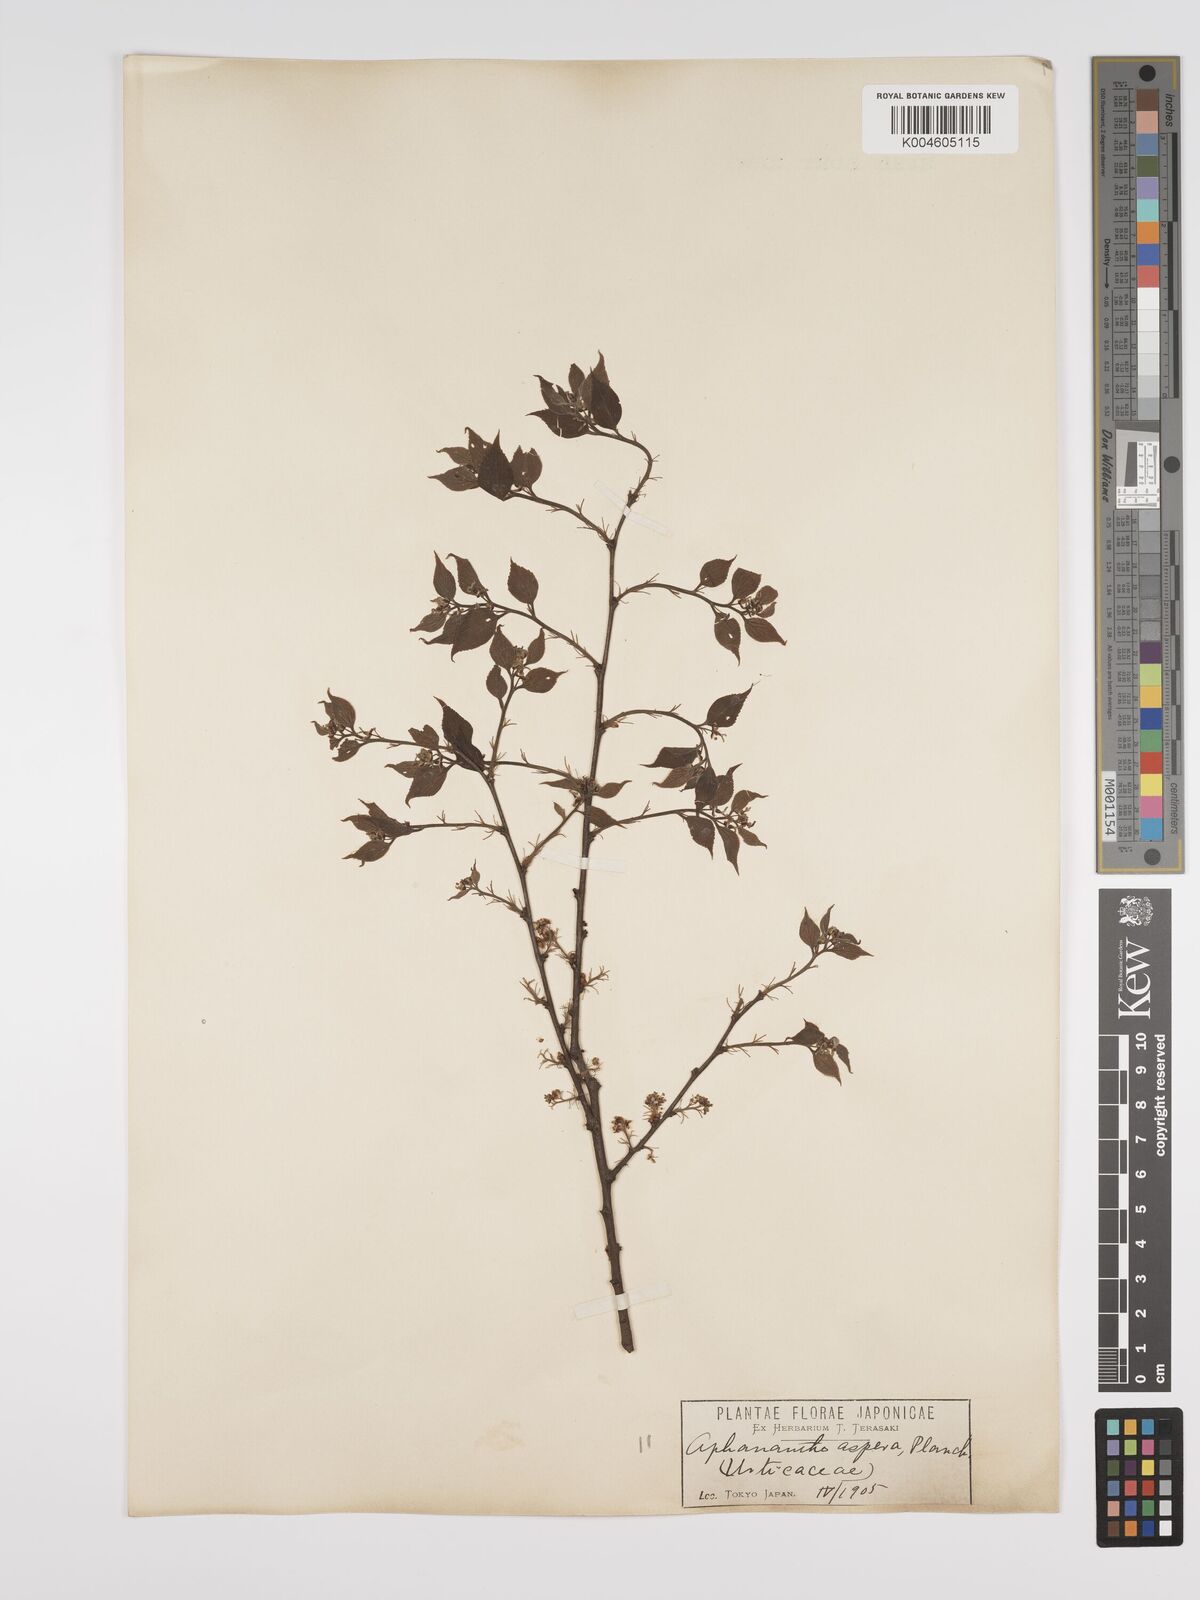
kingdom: Plantae
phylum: Tracheophyta
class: Magnoliopsida
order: Rosales
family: Cannabaceae
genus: Aphananthe
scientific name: Aphananthe aspera
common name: Mukutree
